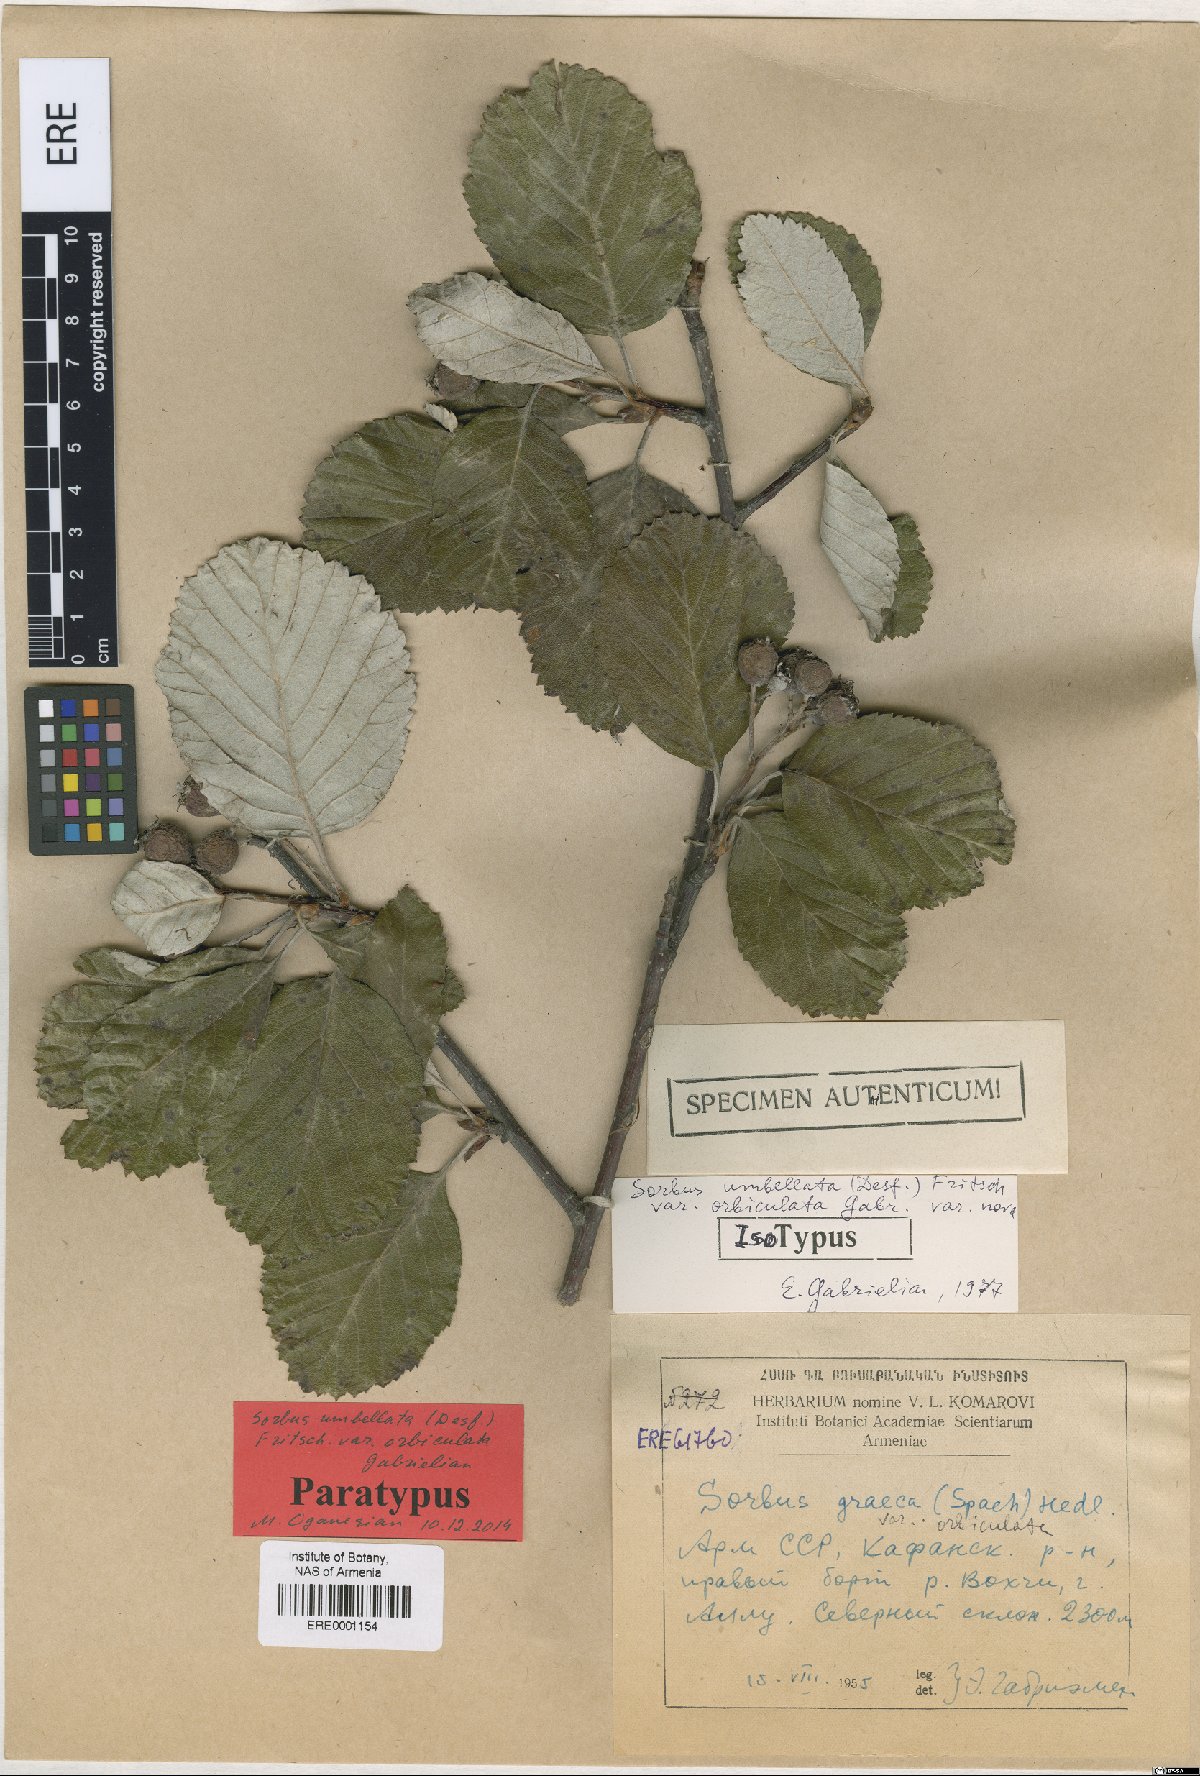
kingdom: Plantae
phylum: Tracheophyta
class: Magnoliopsida
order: Rosales
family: Rosaceae
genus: Aria
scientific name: Aria umbellata
